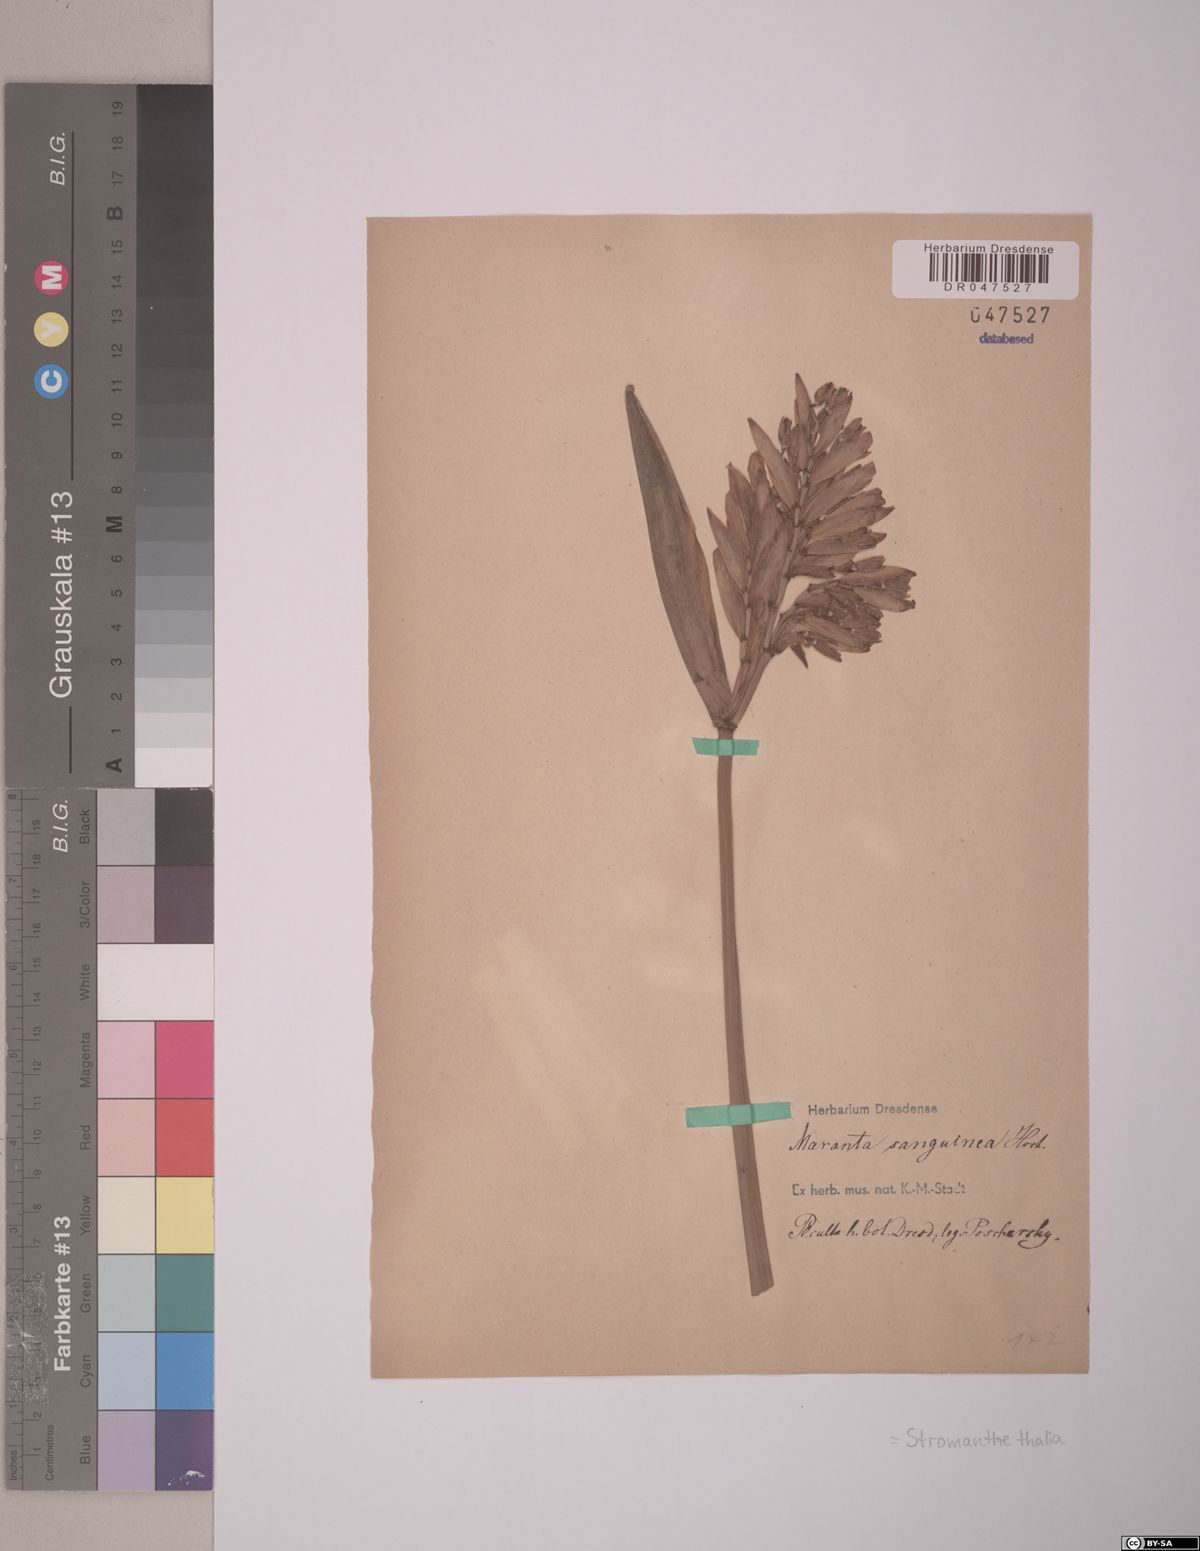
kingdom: Plantae
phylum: Tracheophyta
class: Liliopsida
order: Zingiberales
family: Marantaceae
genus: Stromanthe
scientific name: Stromanthe thalia
